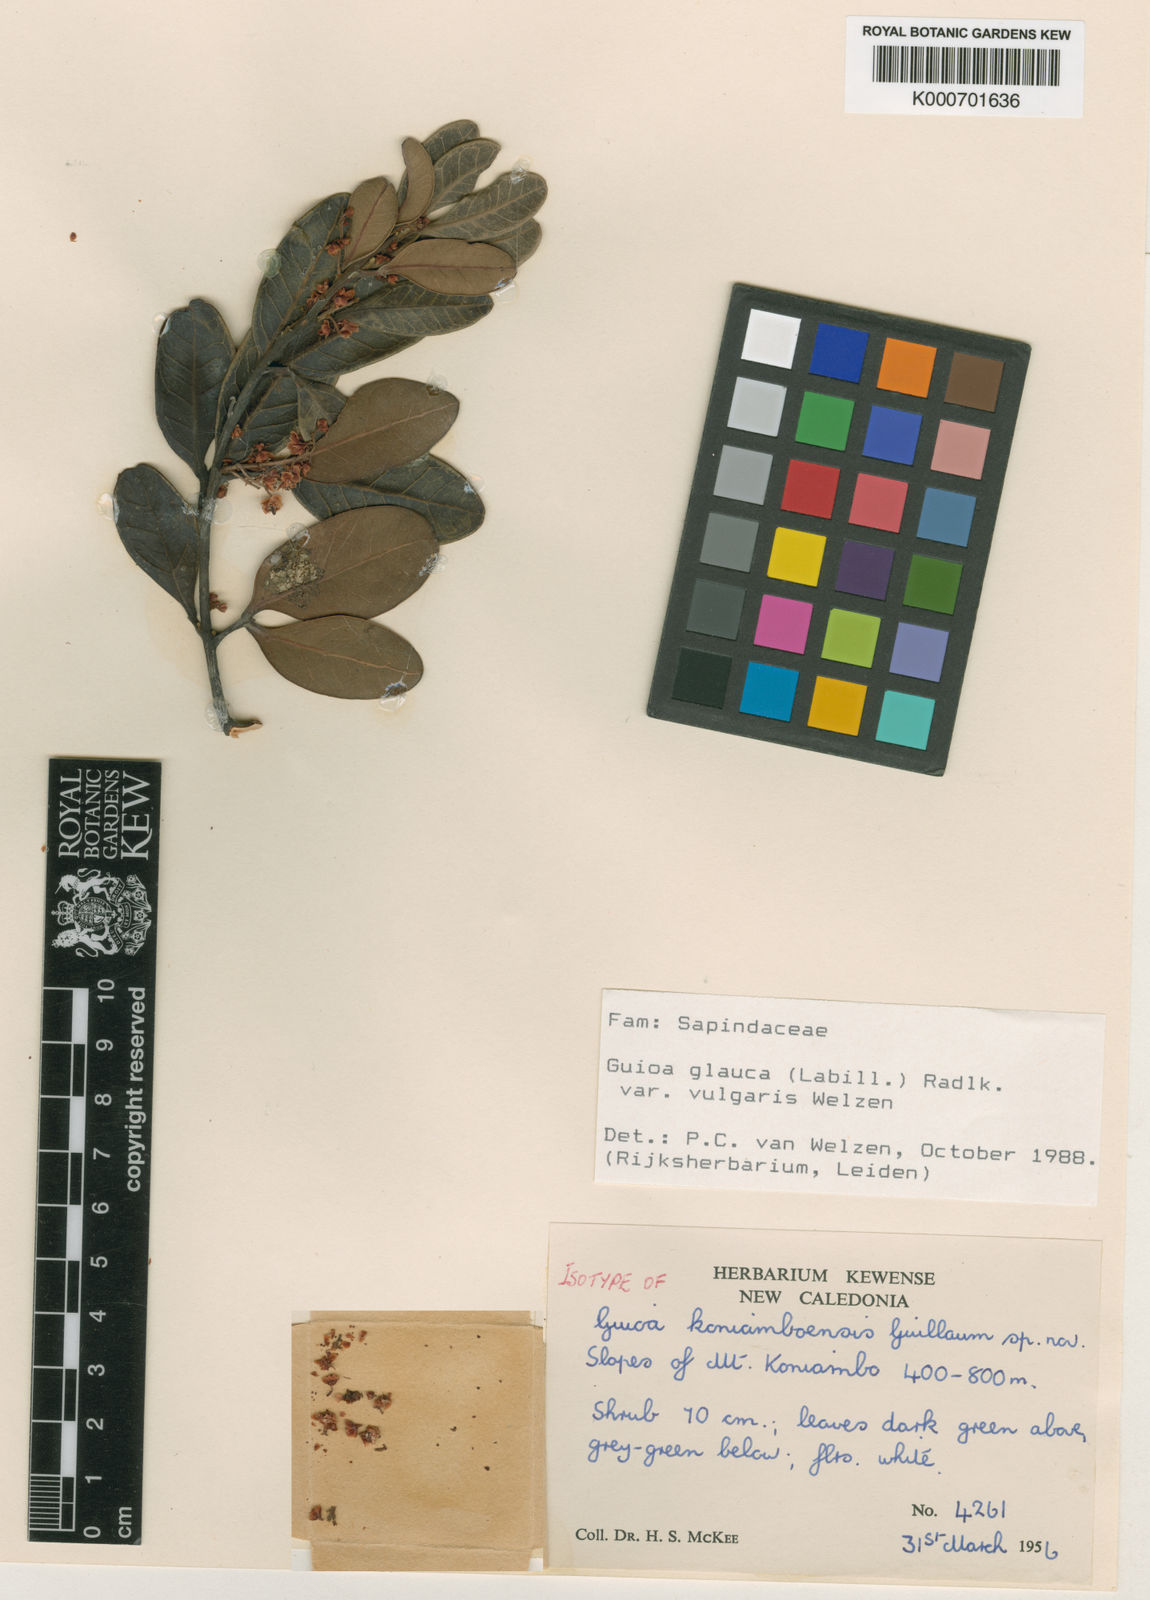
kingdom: Plantae
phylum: Tracheophyta
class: Magnoliopsida
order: Sapindales
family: Sapindaceae
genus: Guioa
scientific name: Guioa glauca
